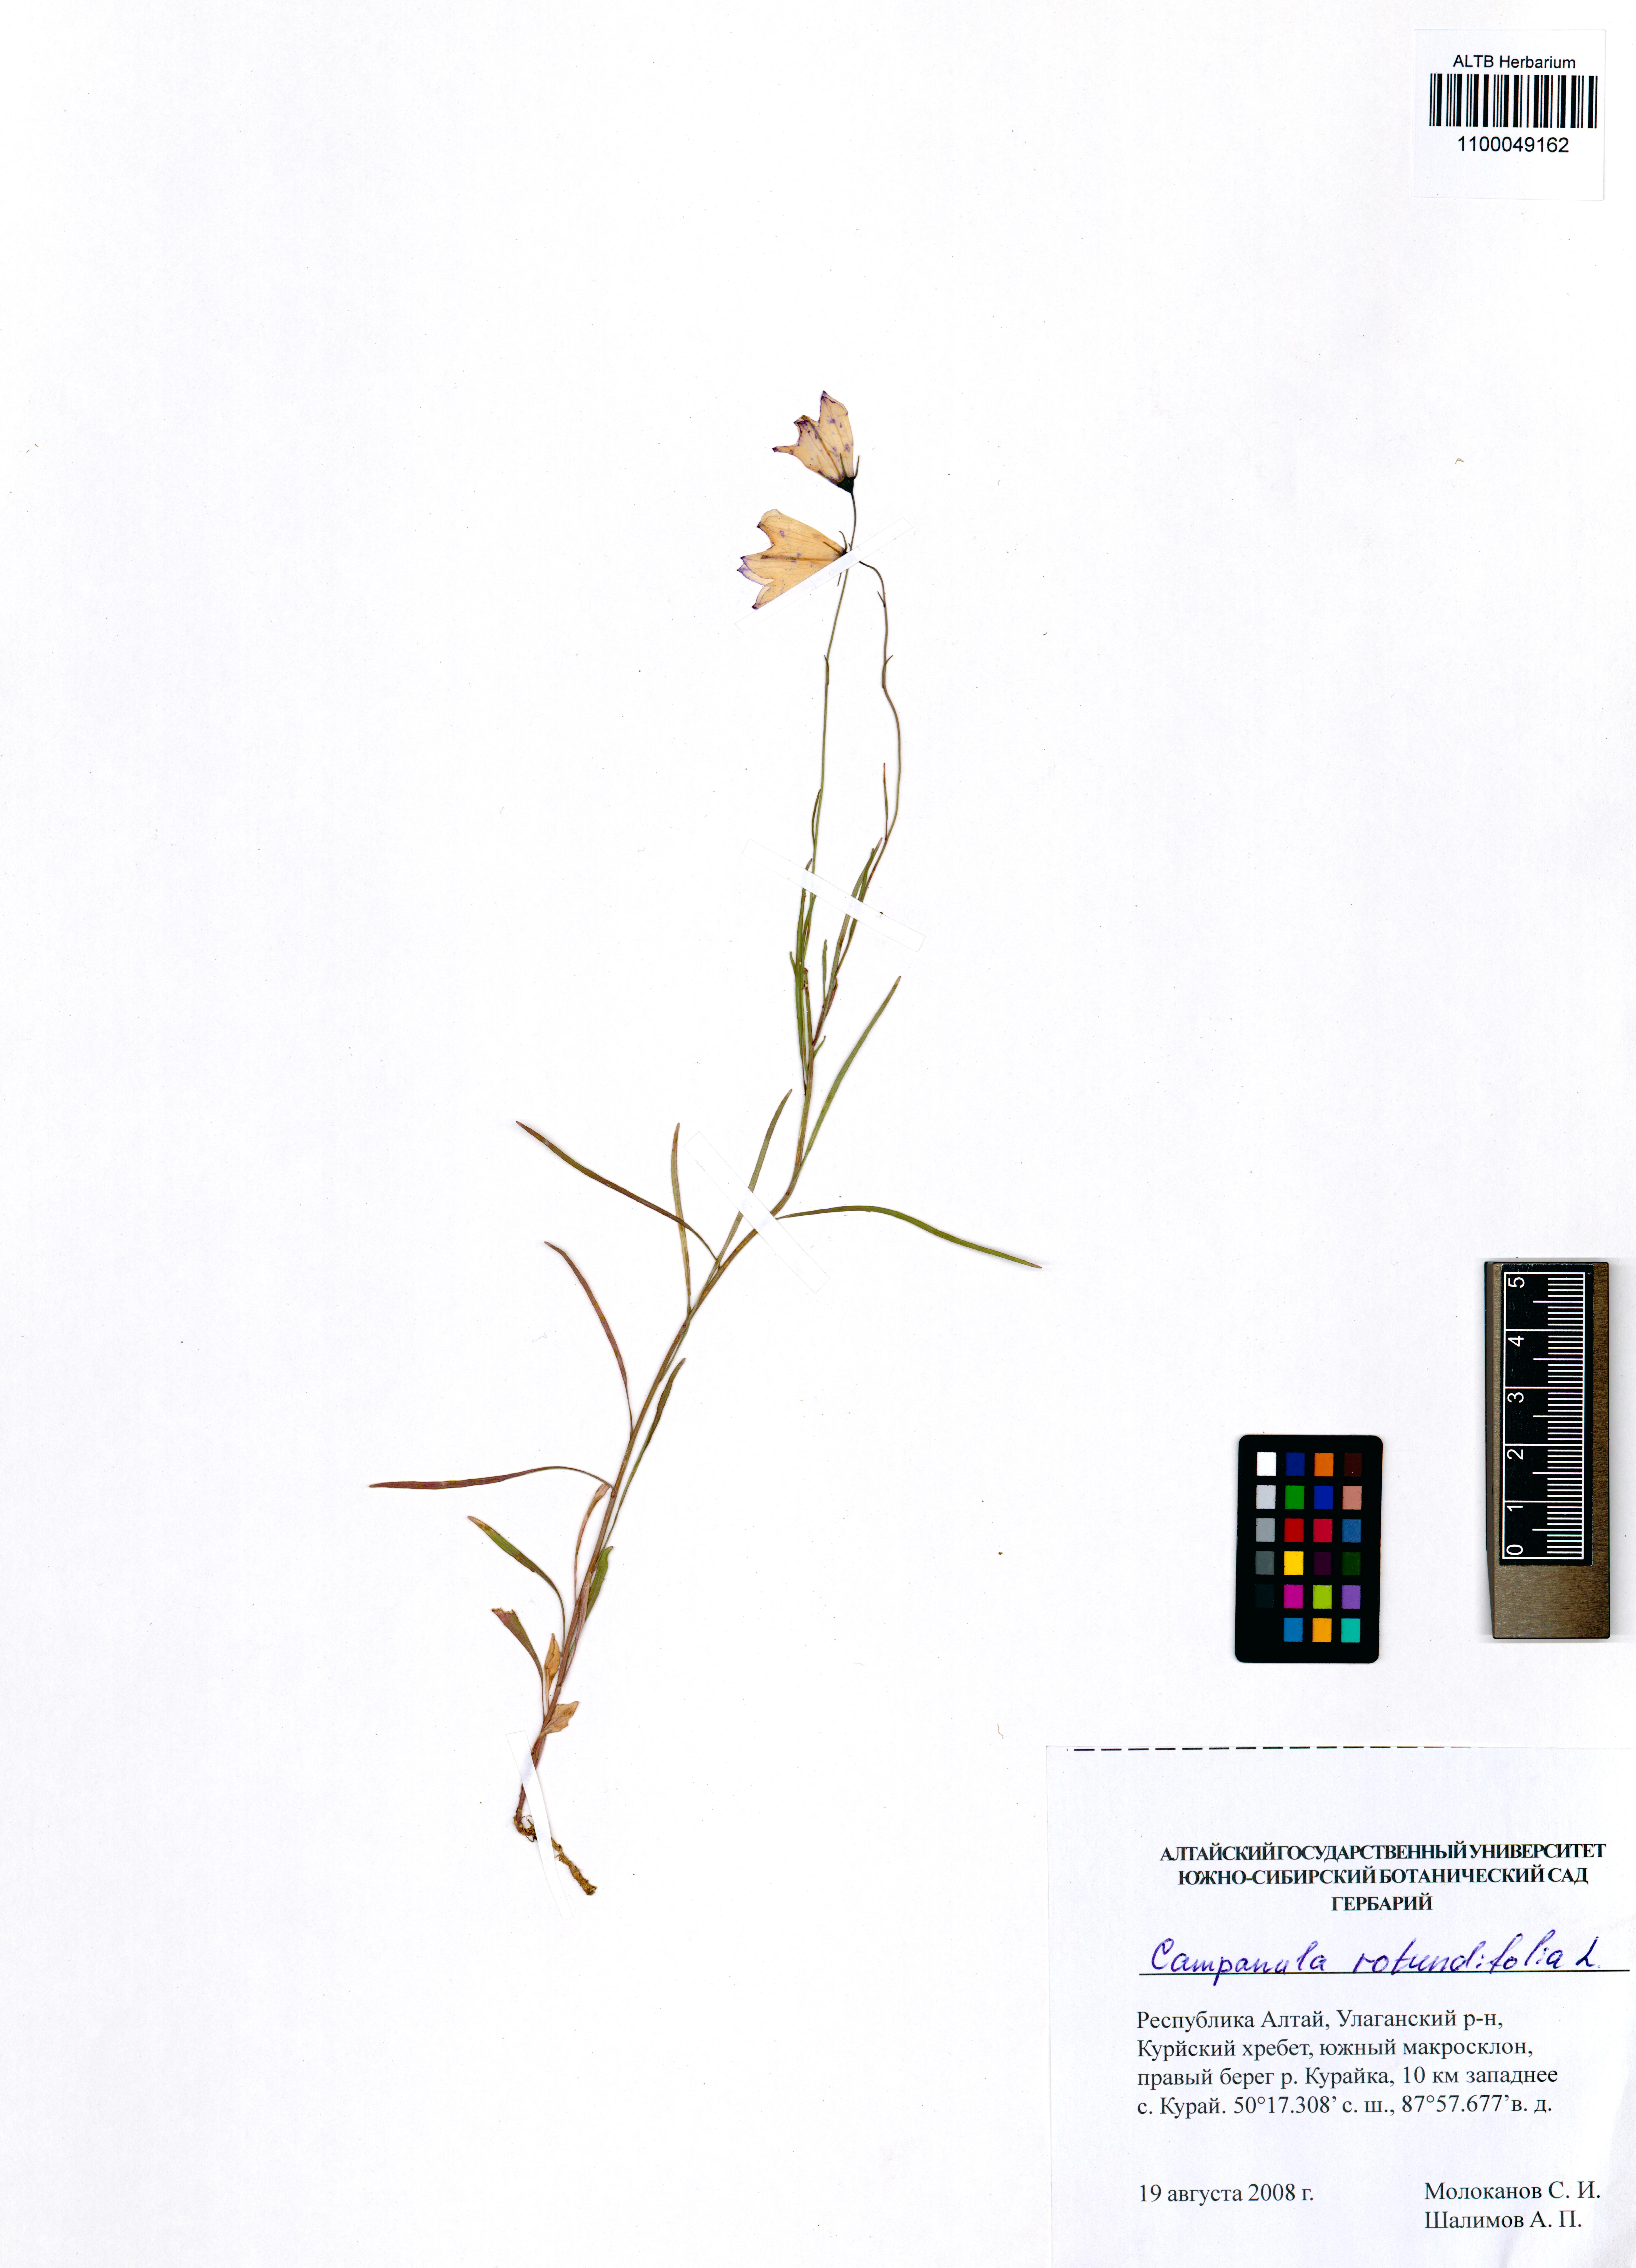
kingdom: Plantae
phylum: Tracheophyta
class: Magnoliopsida
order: Asterales
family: Campanulaceae
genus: Campanula
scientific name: Campanula rotundifolia
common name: Harebell
